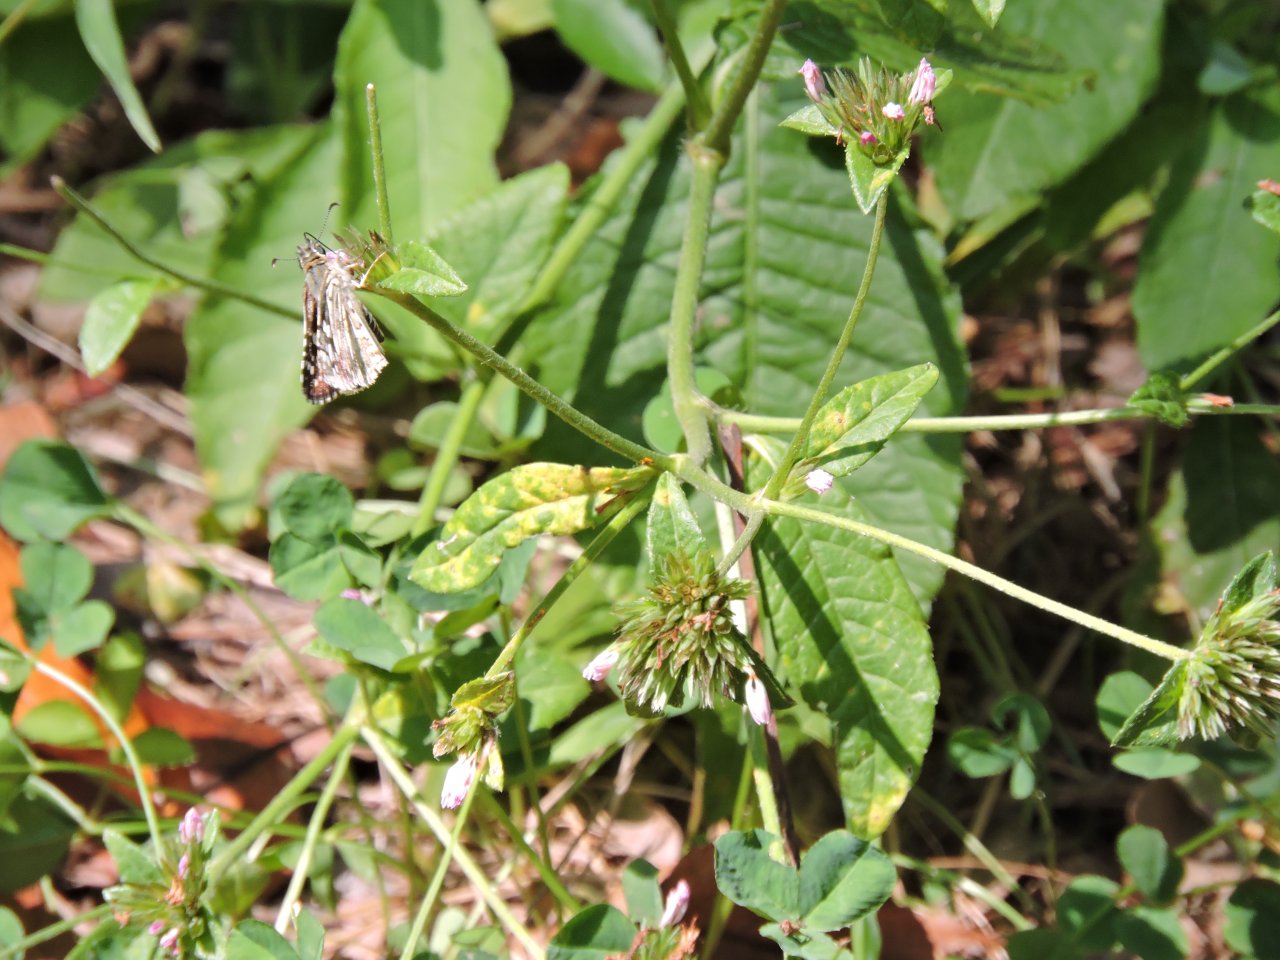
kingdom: Animalia
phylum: Arthropoda
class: Insecta
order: Lepidoptera
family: Hesperiidae
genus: Pyrgus
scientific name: Pyrgus oileus
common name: Tropical Checkered-Skipper
